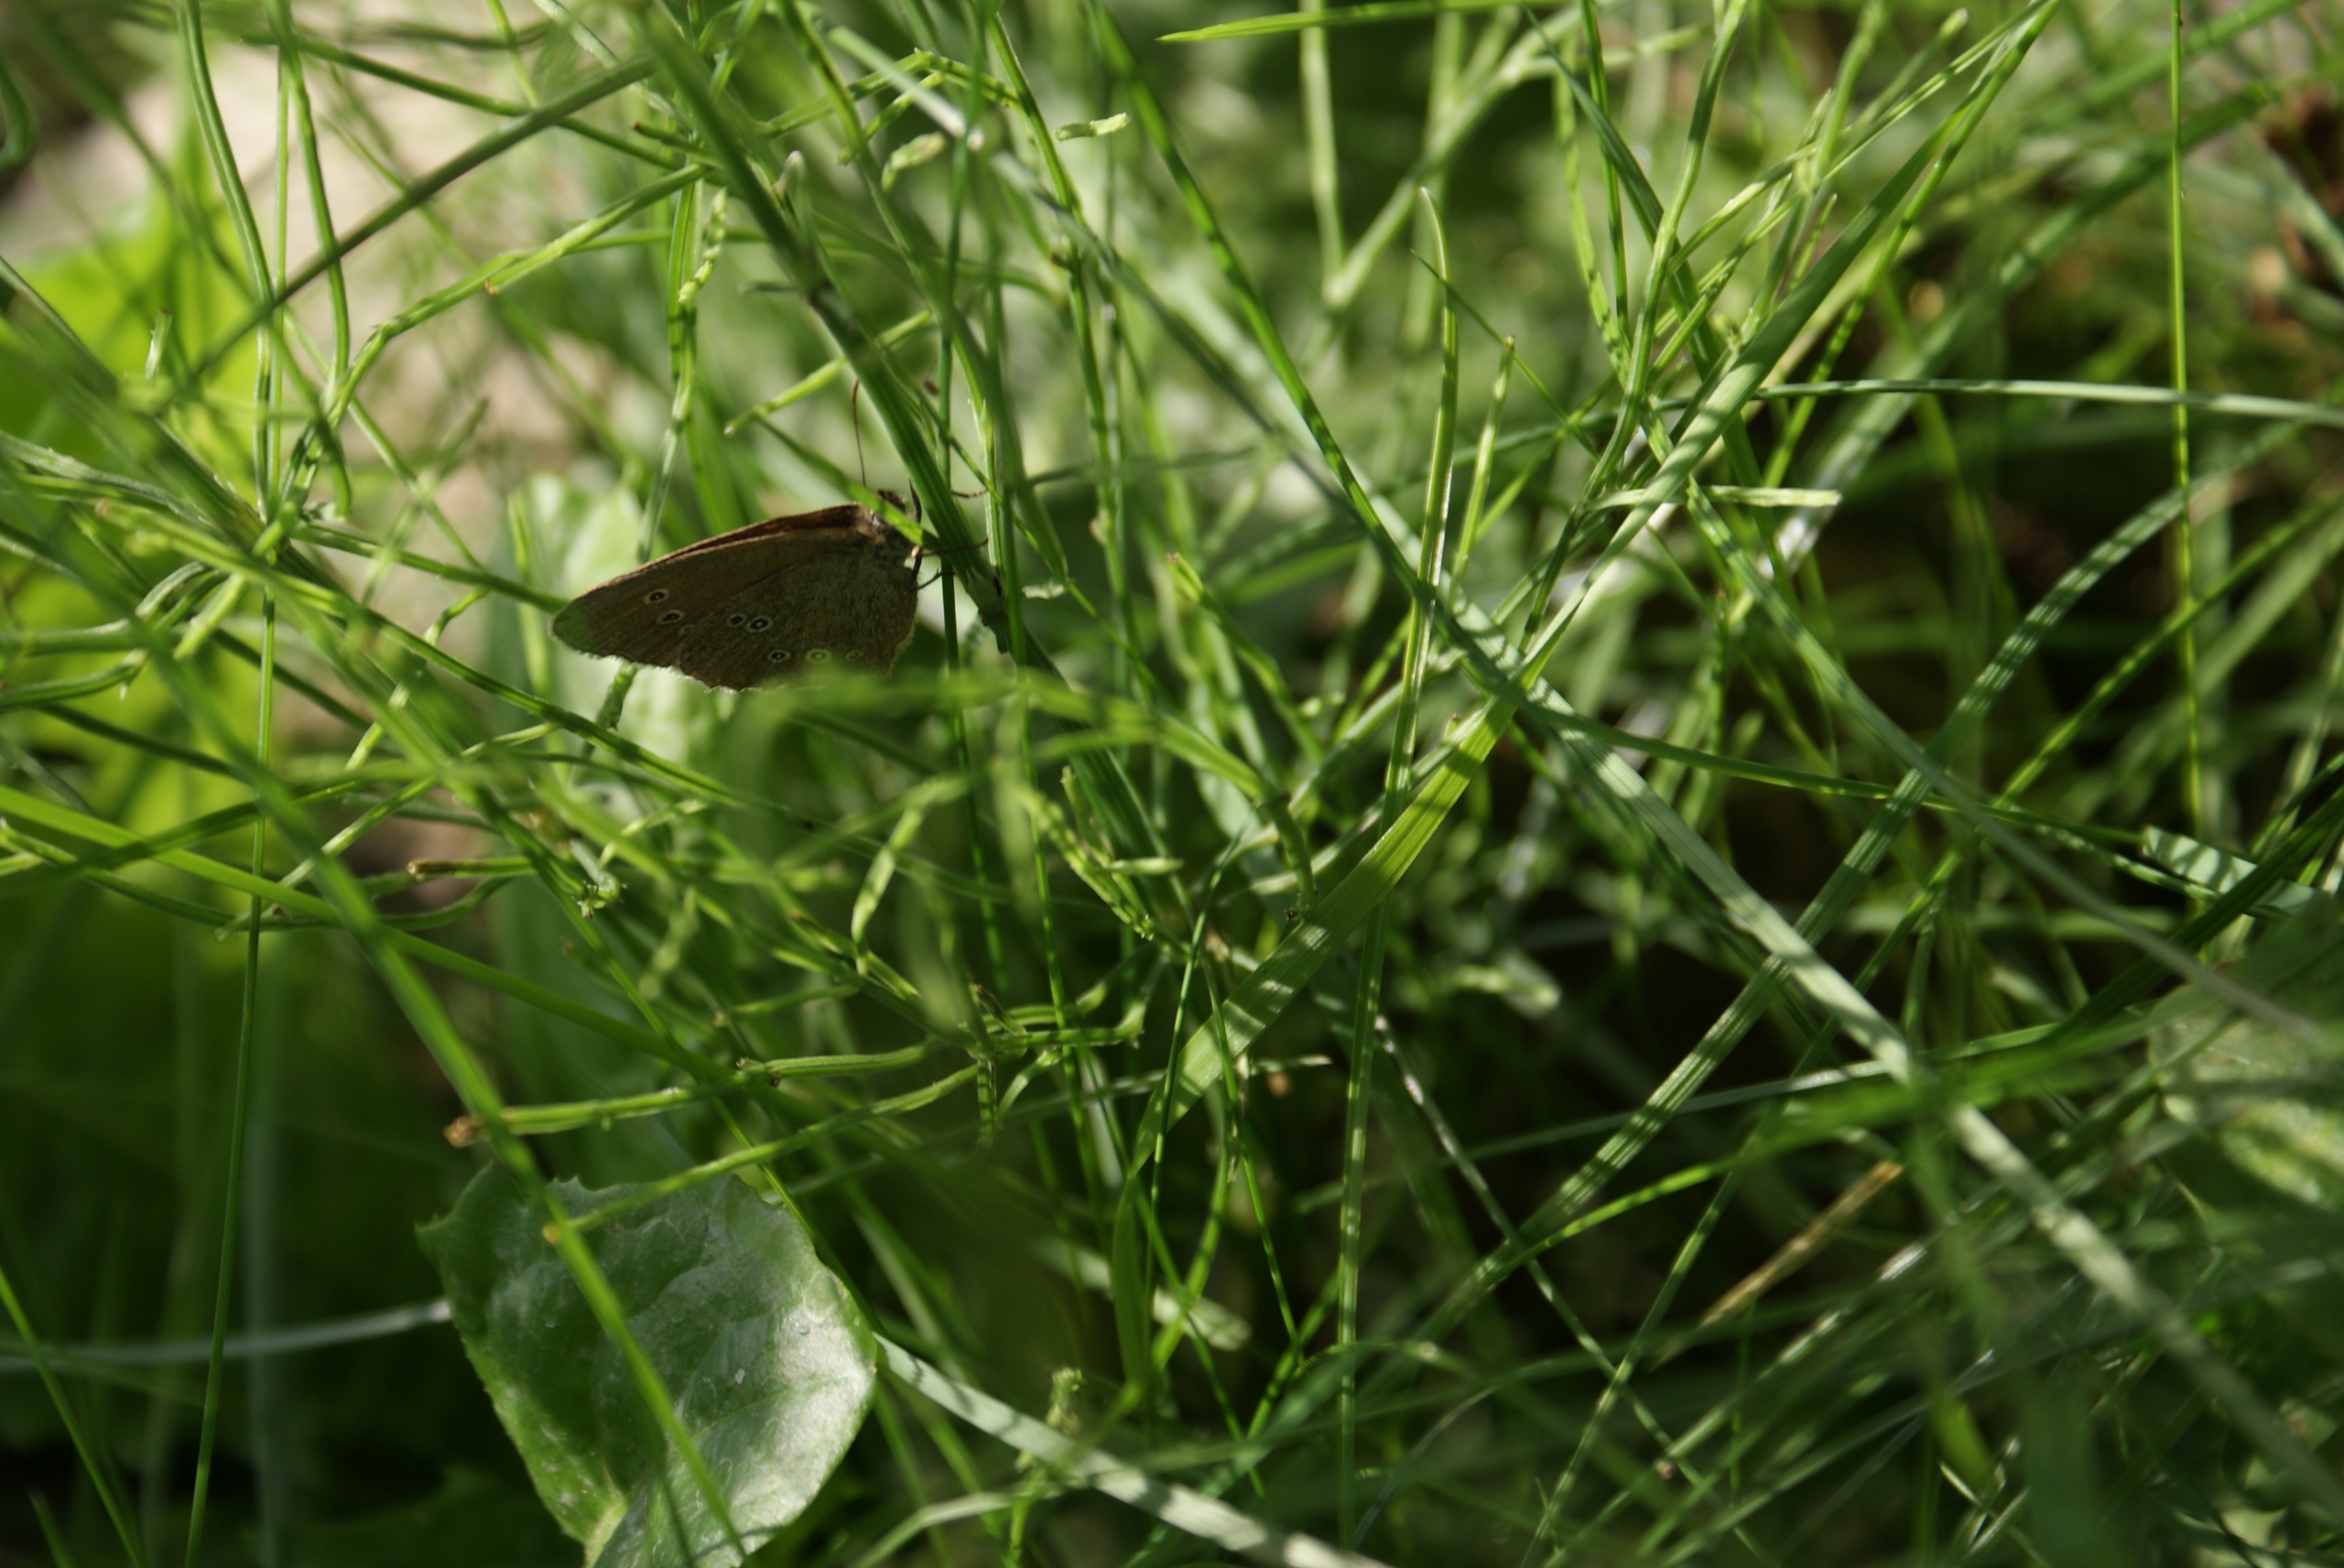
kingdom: Animalia
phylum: Arthropoda
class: Insecta
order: Lepidoptera
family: Nymphalidae
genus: Aphantopus
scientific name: Aphantopus hyperantus
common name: Engrandøje
